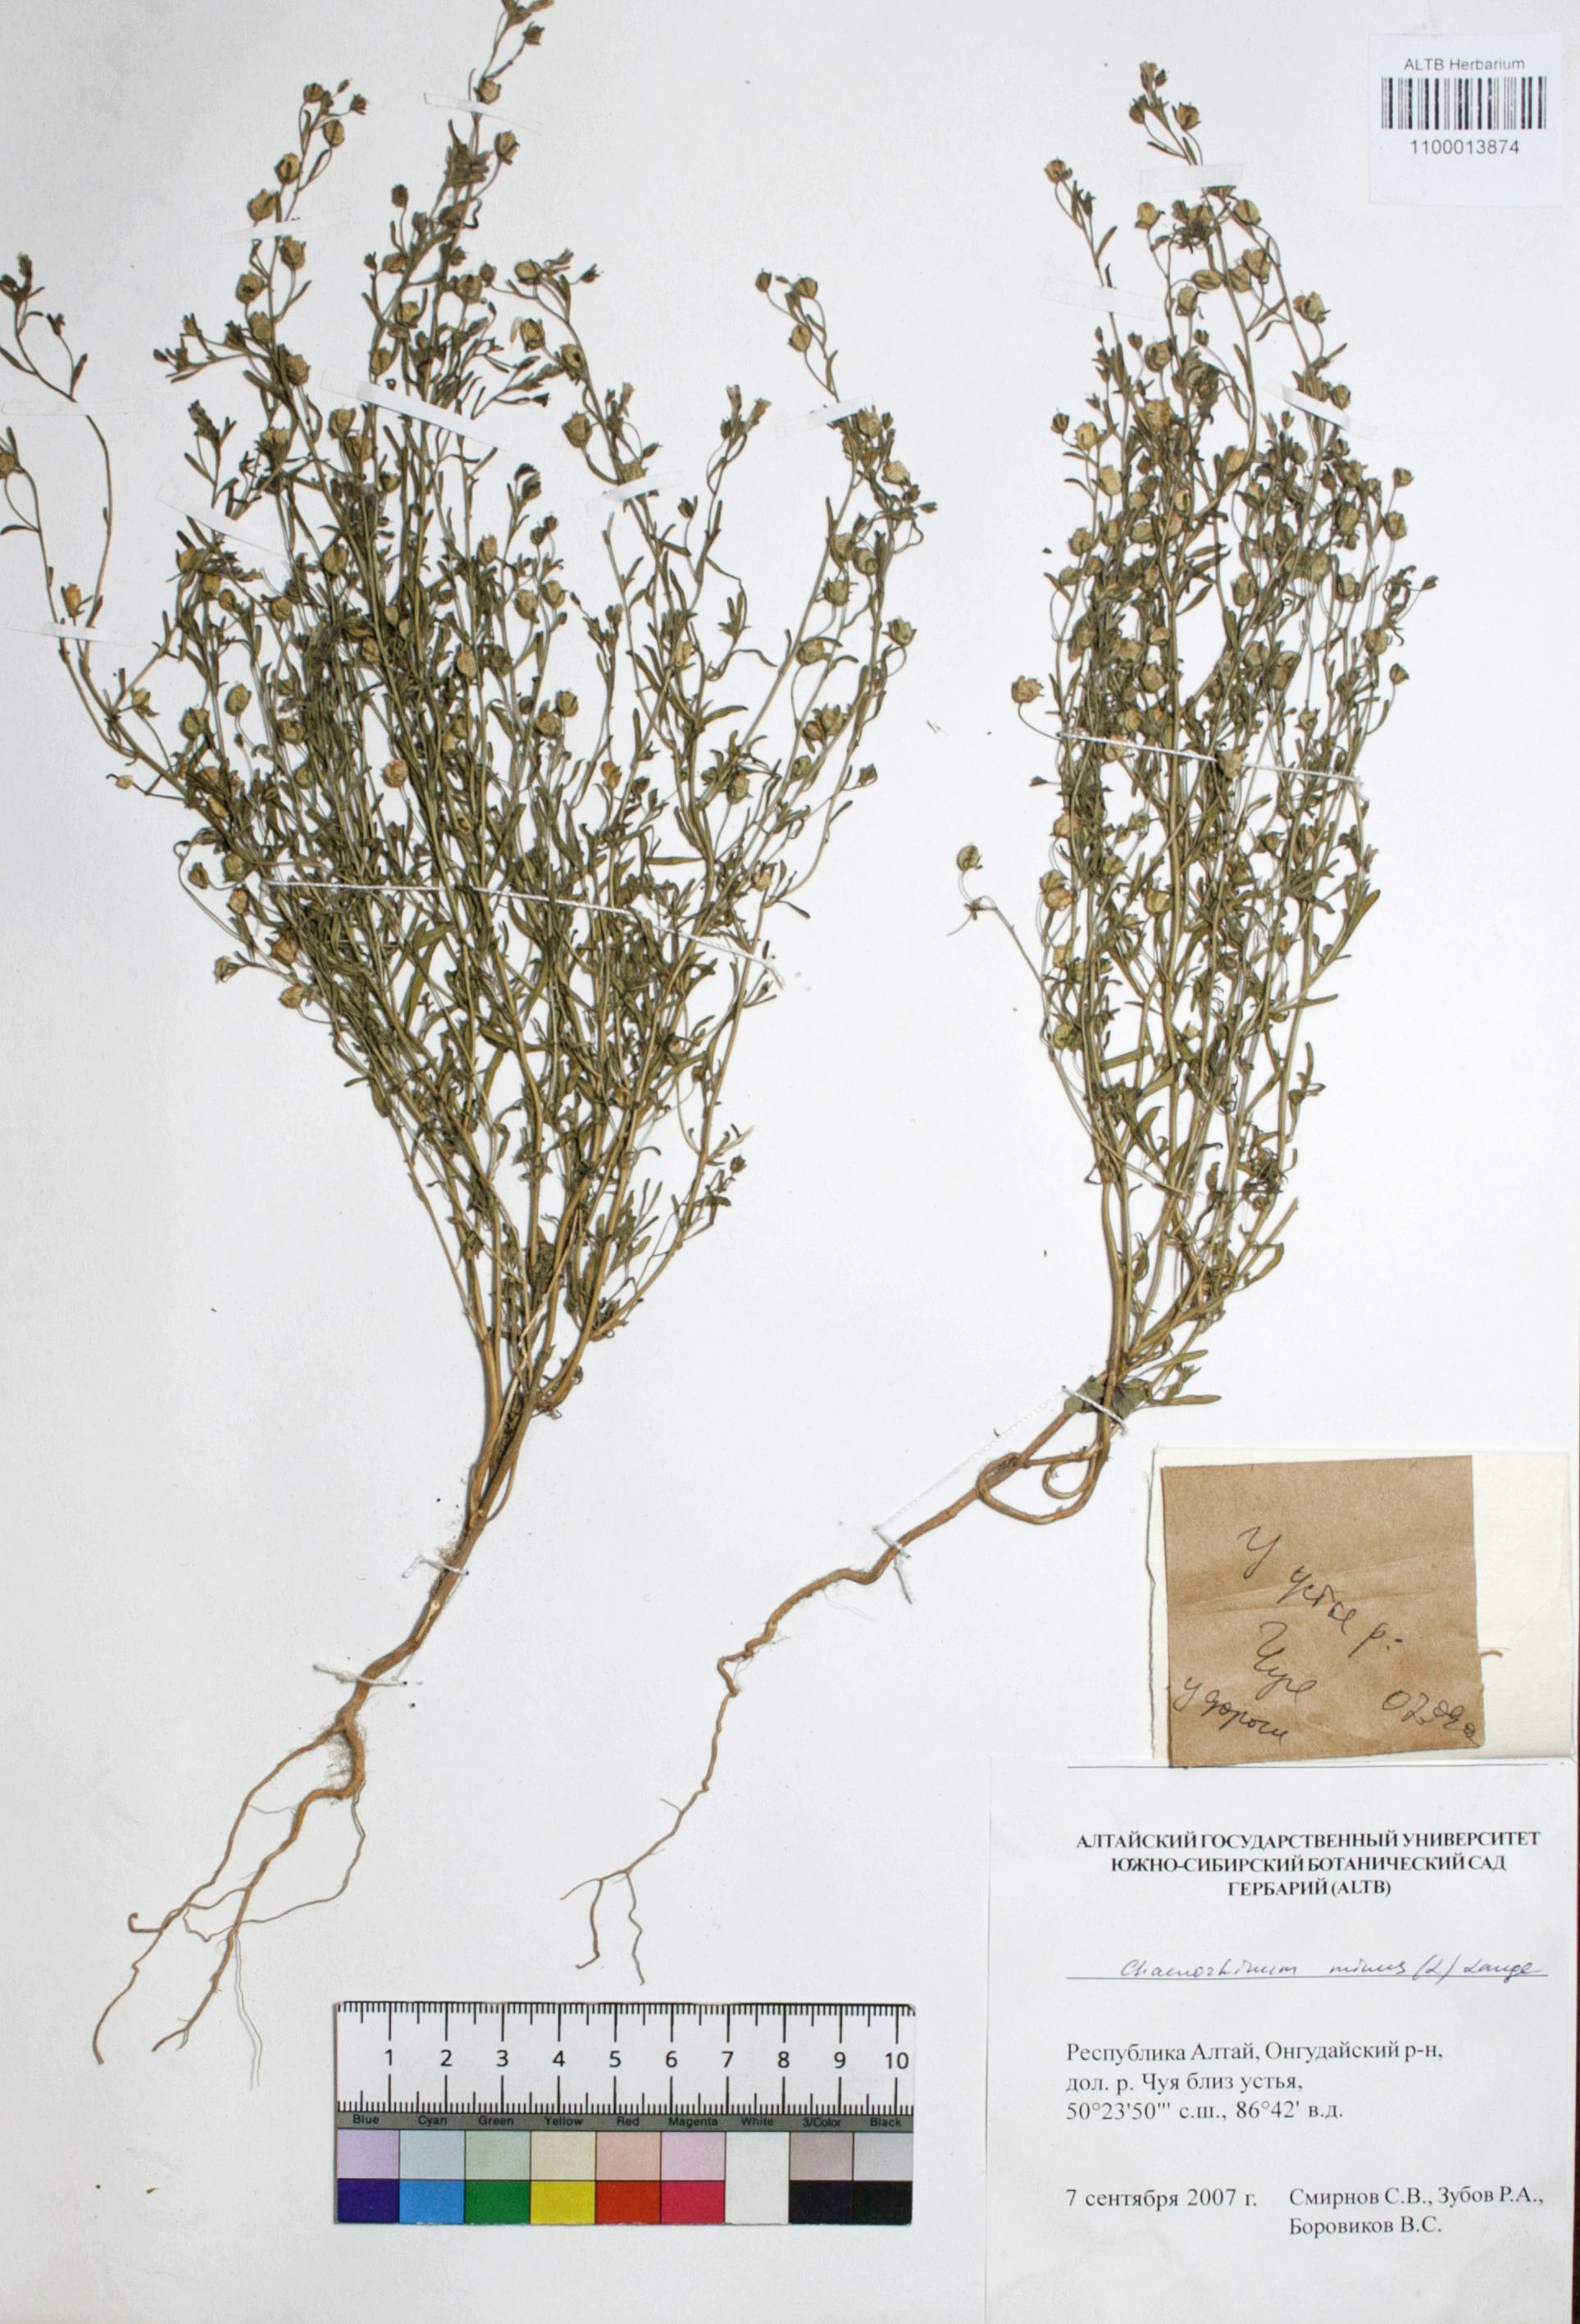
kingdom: Plantae
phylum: Tracheophyta
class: Magnoliopsida
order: Lamiales
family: Plantaginaceae
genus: Chaenorhinum
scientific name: Chaenorhinum minus
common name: Dwarf snapdragon
